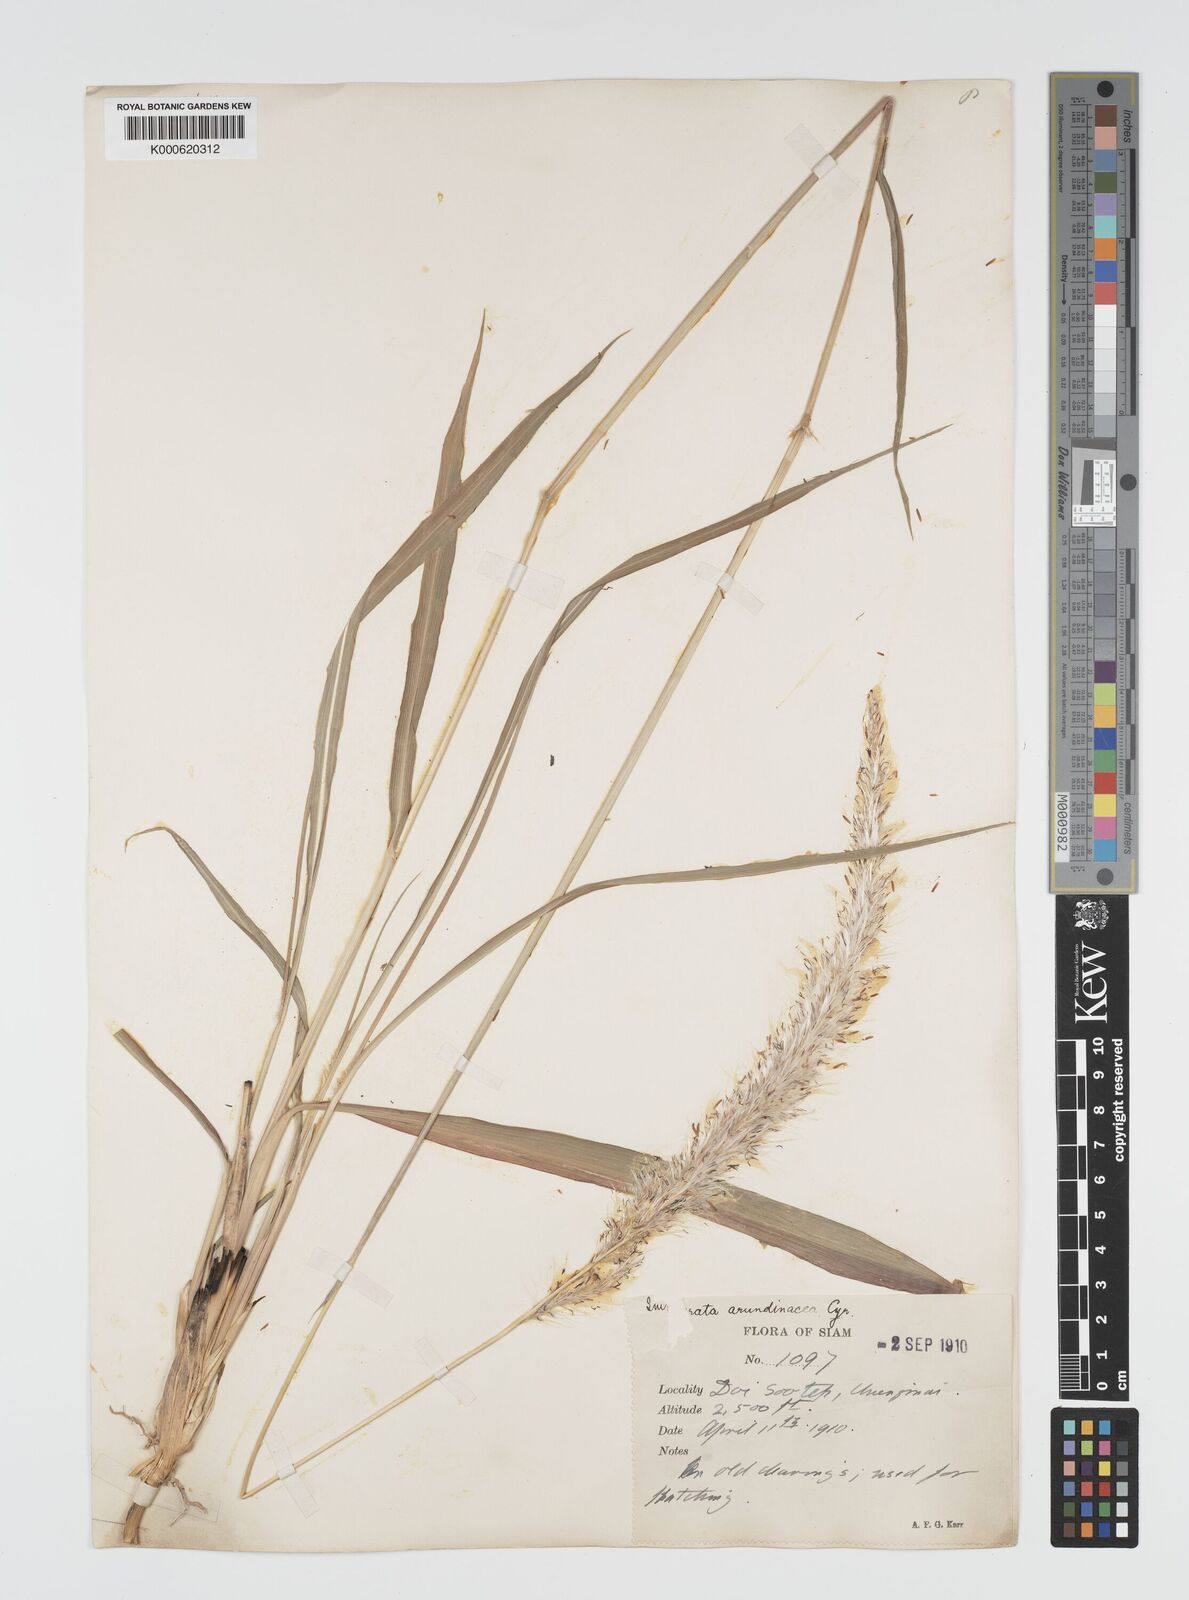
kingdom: Plantae
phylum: Tracheophyta
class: Liliopsida
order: Poales
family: Poaceae
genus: Imperata
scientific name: Imperata cylindrica
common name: Cogongrass
